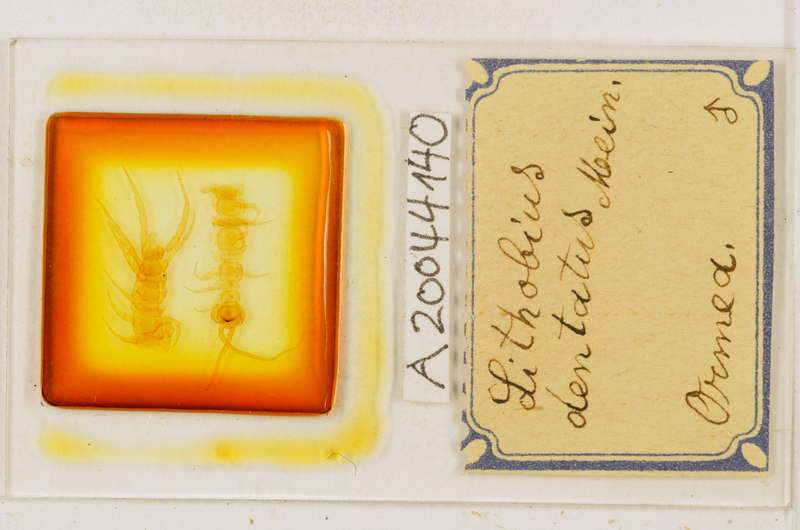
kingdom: Animalia
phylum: Arthropoda
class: Chilopoda
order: Lithobiomorpha
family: Lithobiidae
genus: Lithobius
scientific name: Lithobius dentatus
